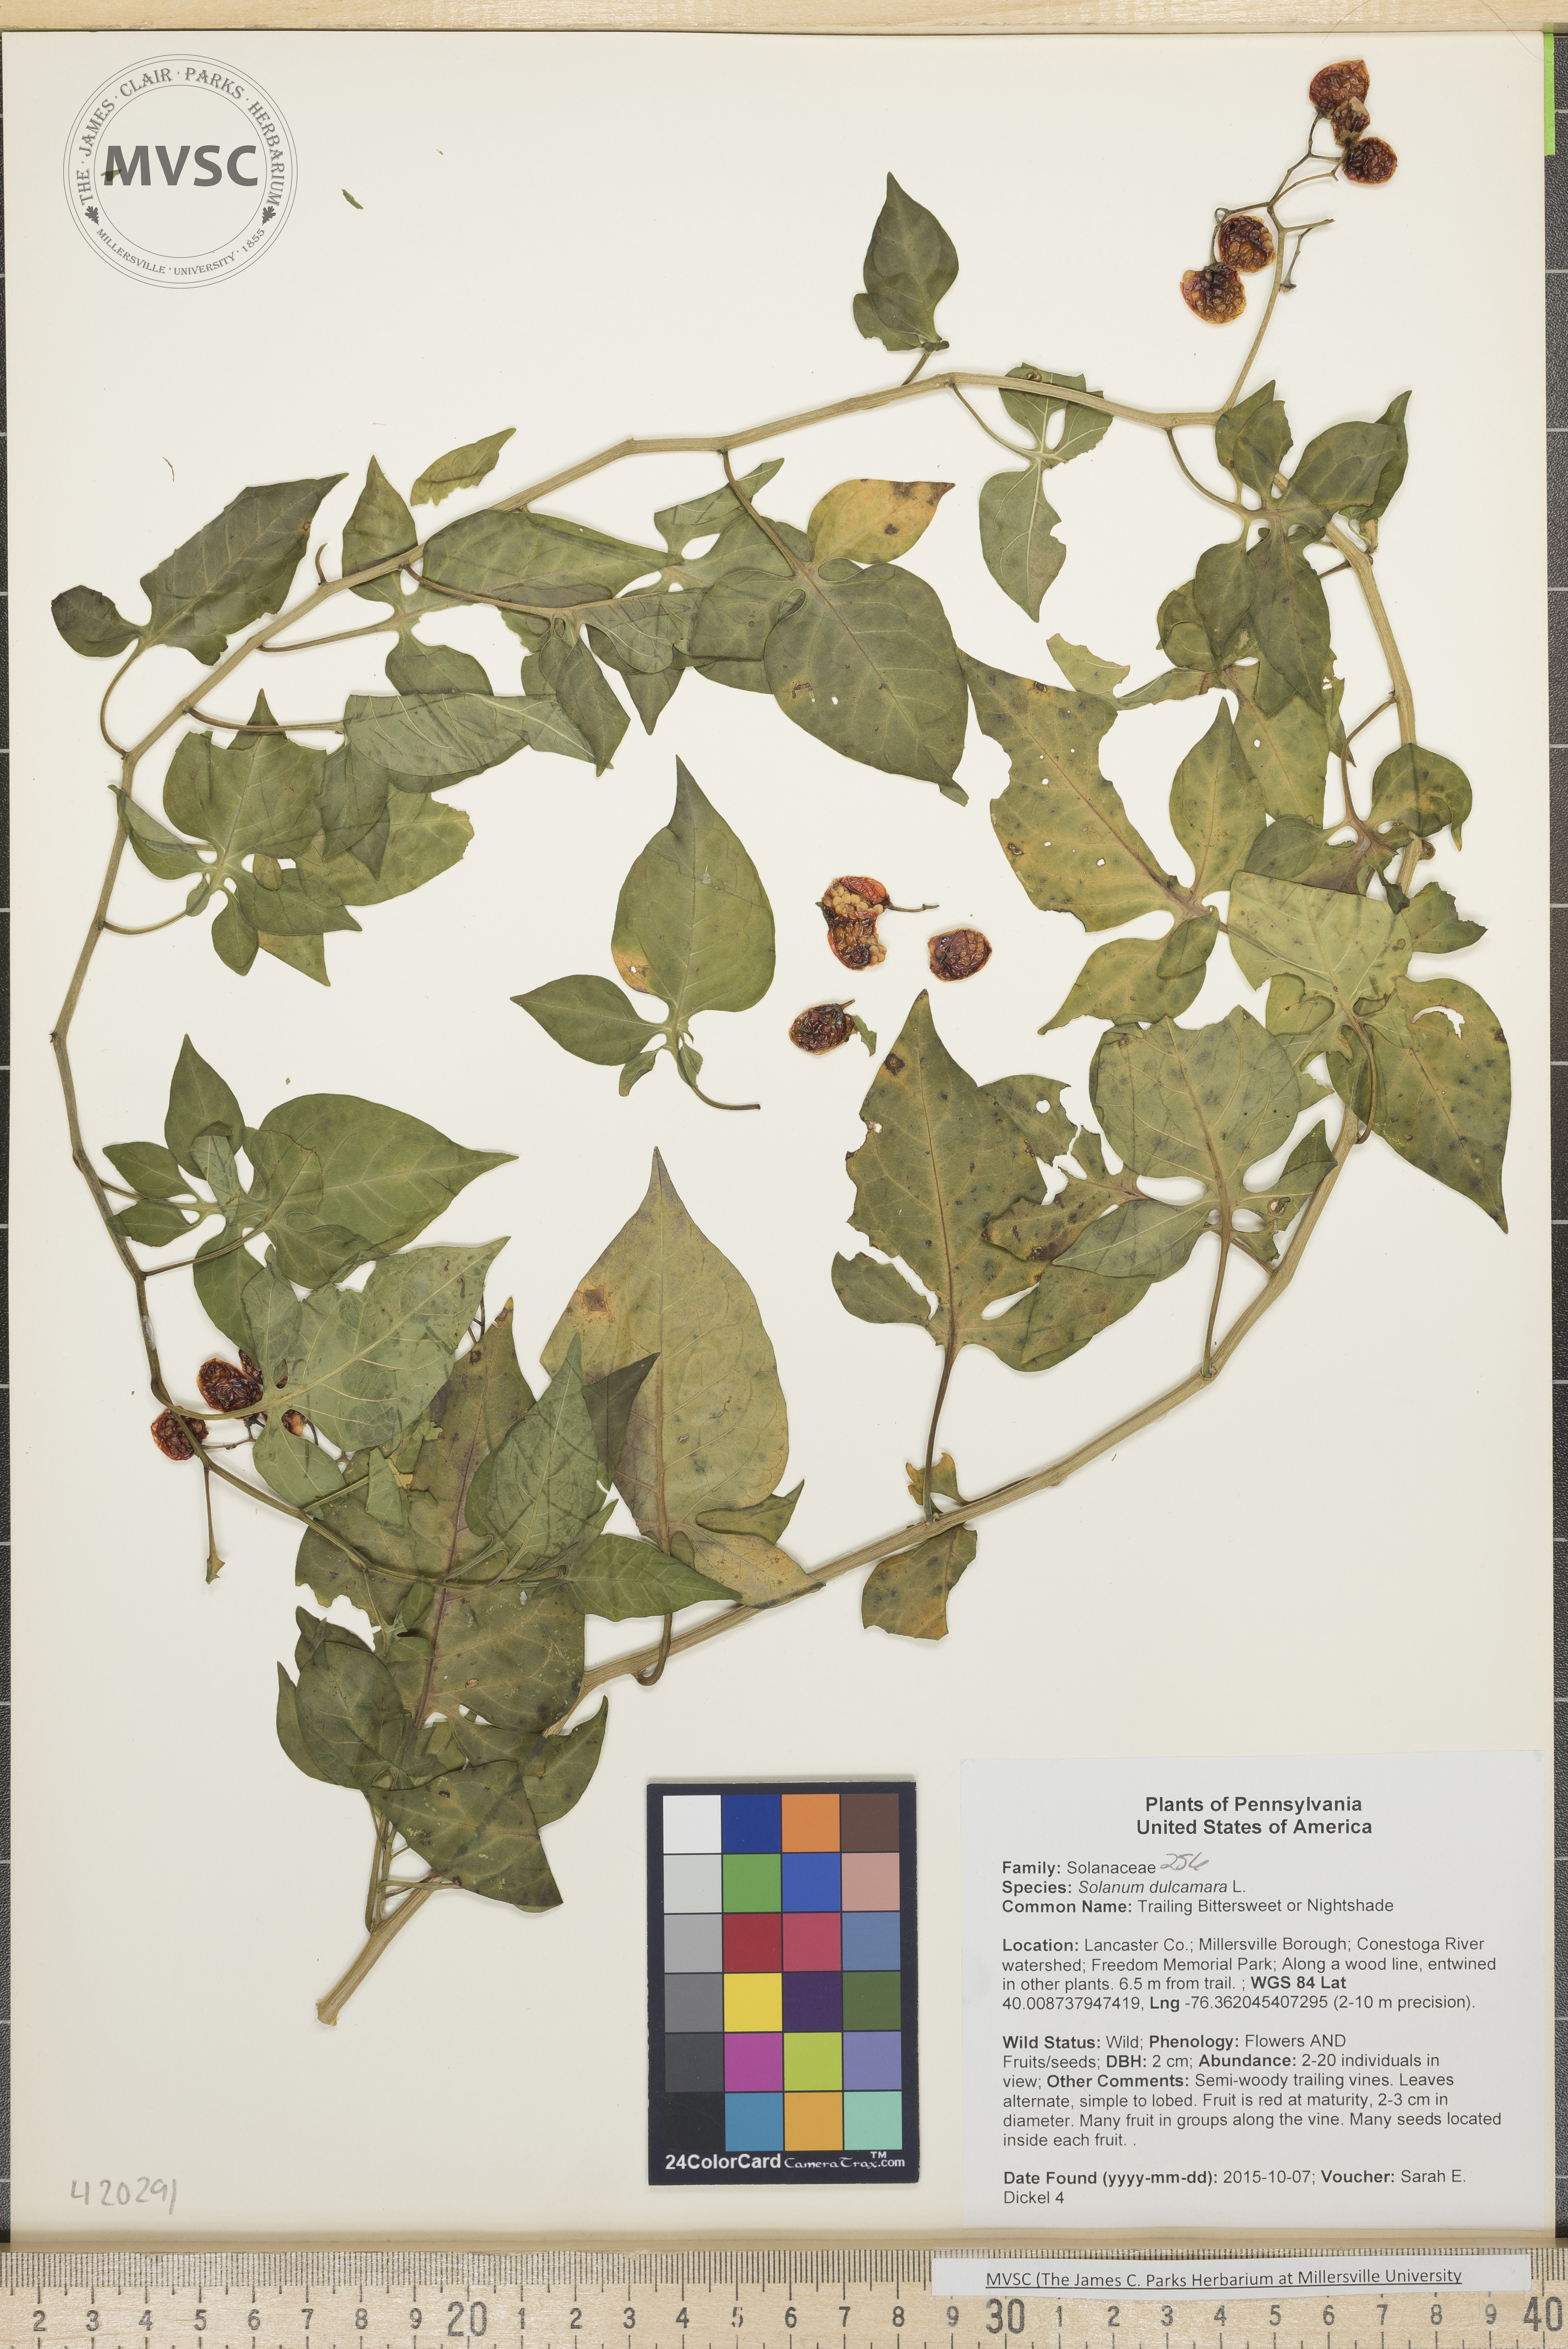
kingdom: Plantae
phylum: Tracheophyta
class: Magnoliopsida
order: Solanales
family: Solanaceae
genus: Solanum
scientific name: Solanum dulcamara
